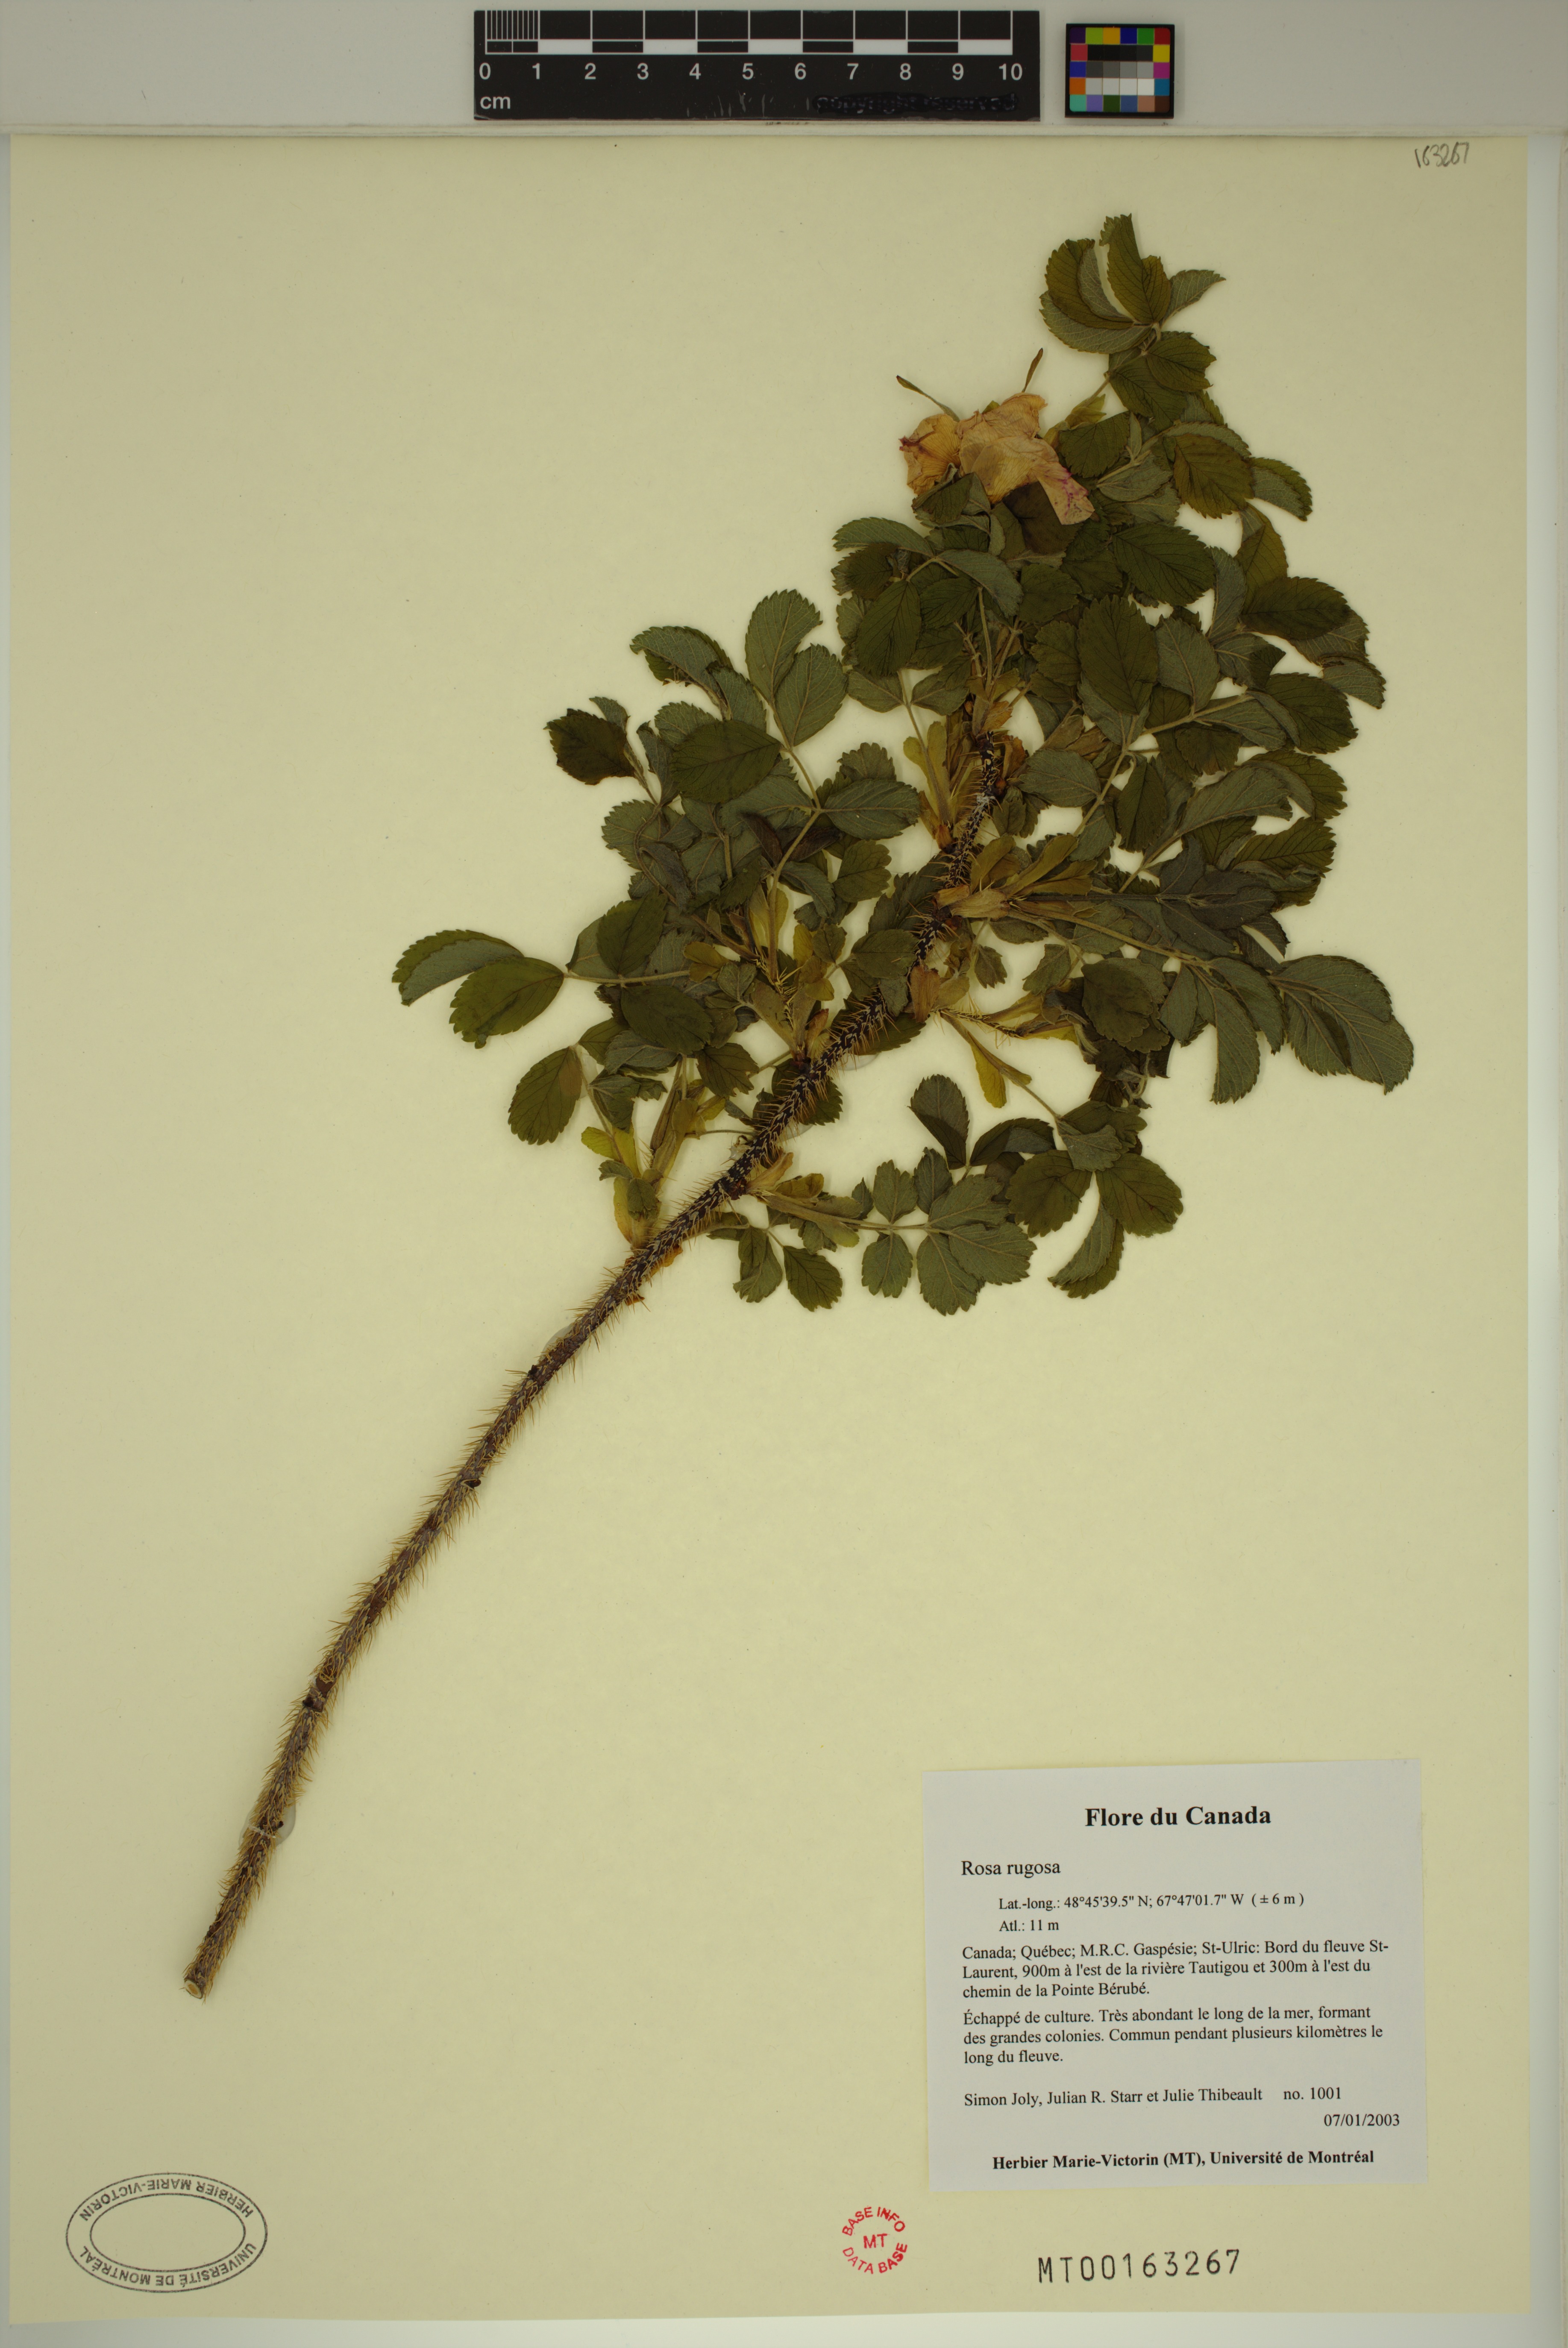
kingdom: Plantae
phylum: Tracheophyta
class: Magnoliopsida
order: Rosales
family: Rosaceae
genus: Rosa
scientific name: Rosa rugosa
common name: Japanese rose
